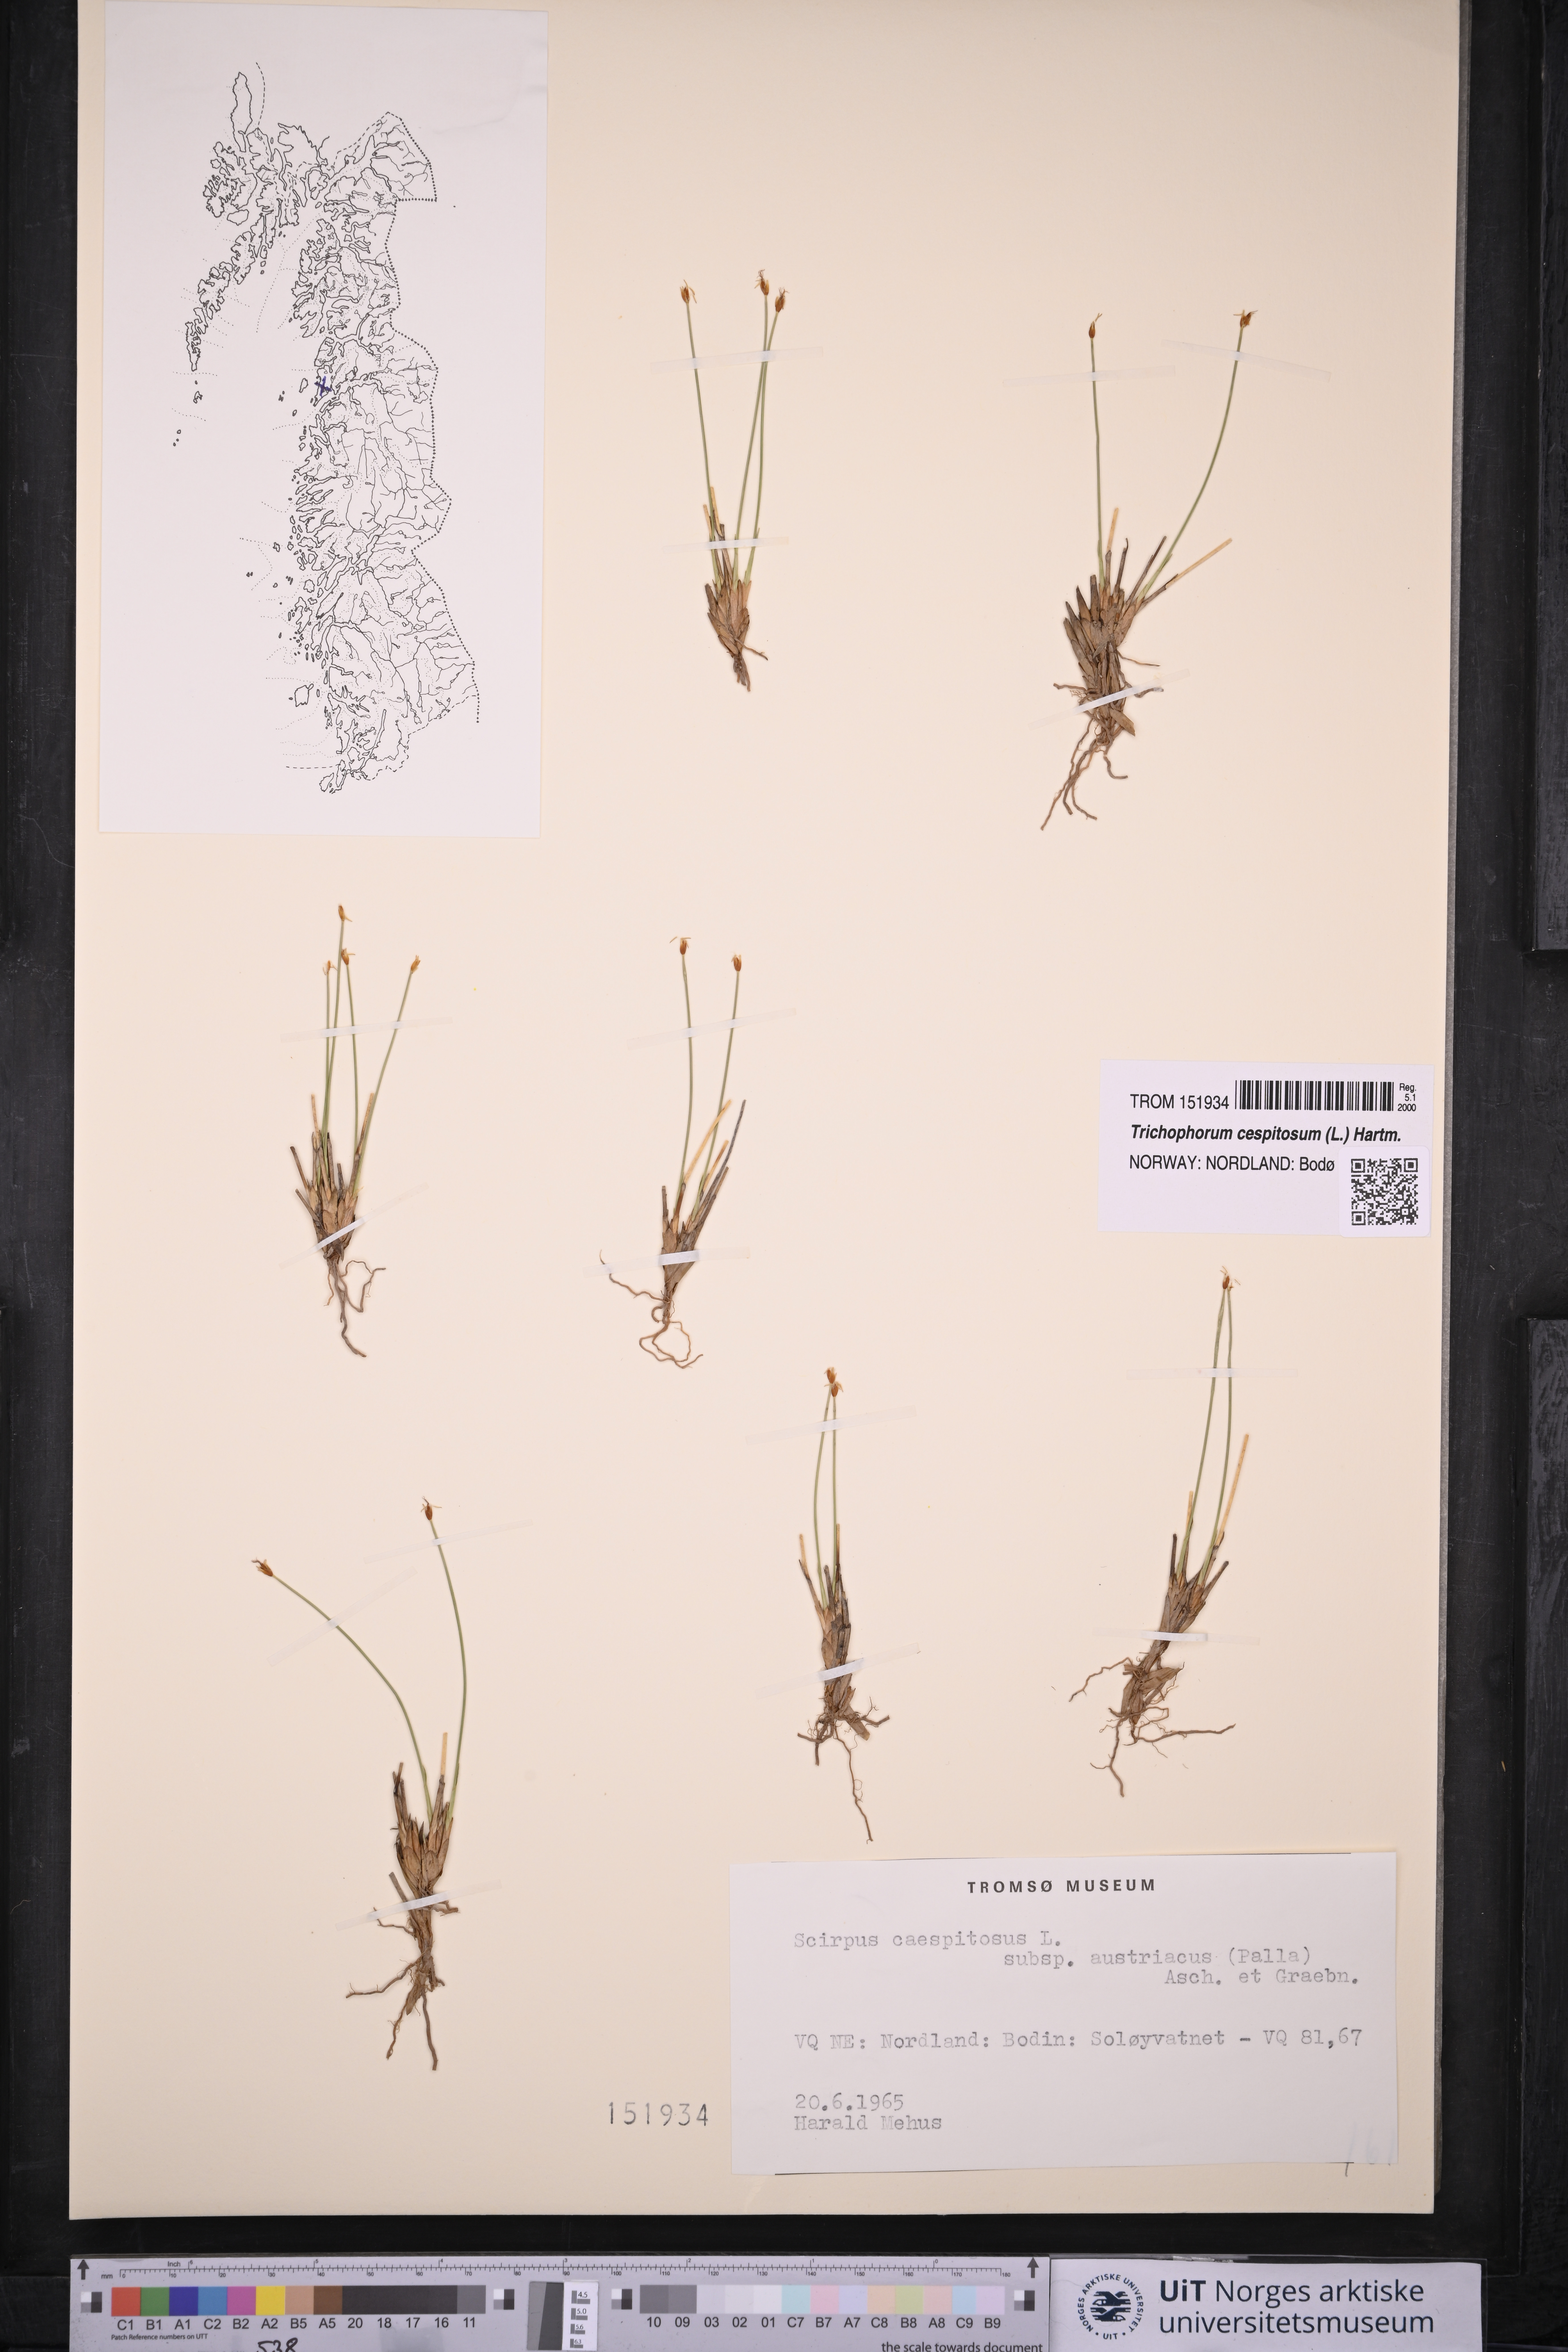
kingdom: Plantae
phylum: Tracheophyta
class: Liliopsida
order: Poales
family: Cyperaceae
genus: Trichophorum
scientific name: Trichophorum cespitosum
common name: Cespitose bulrush
